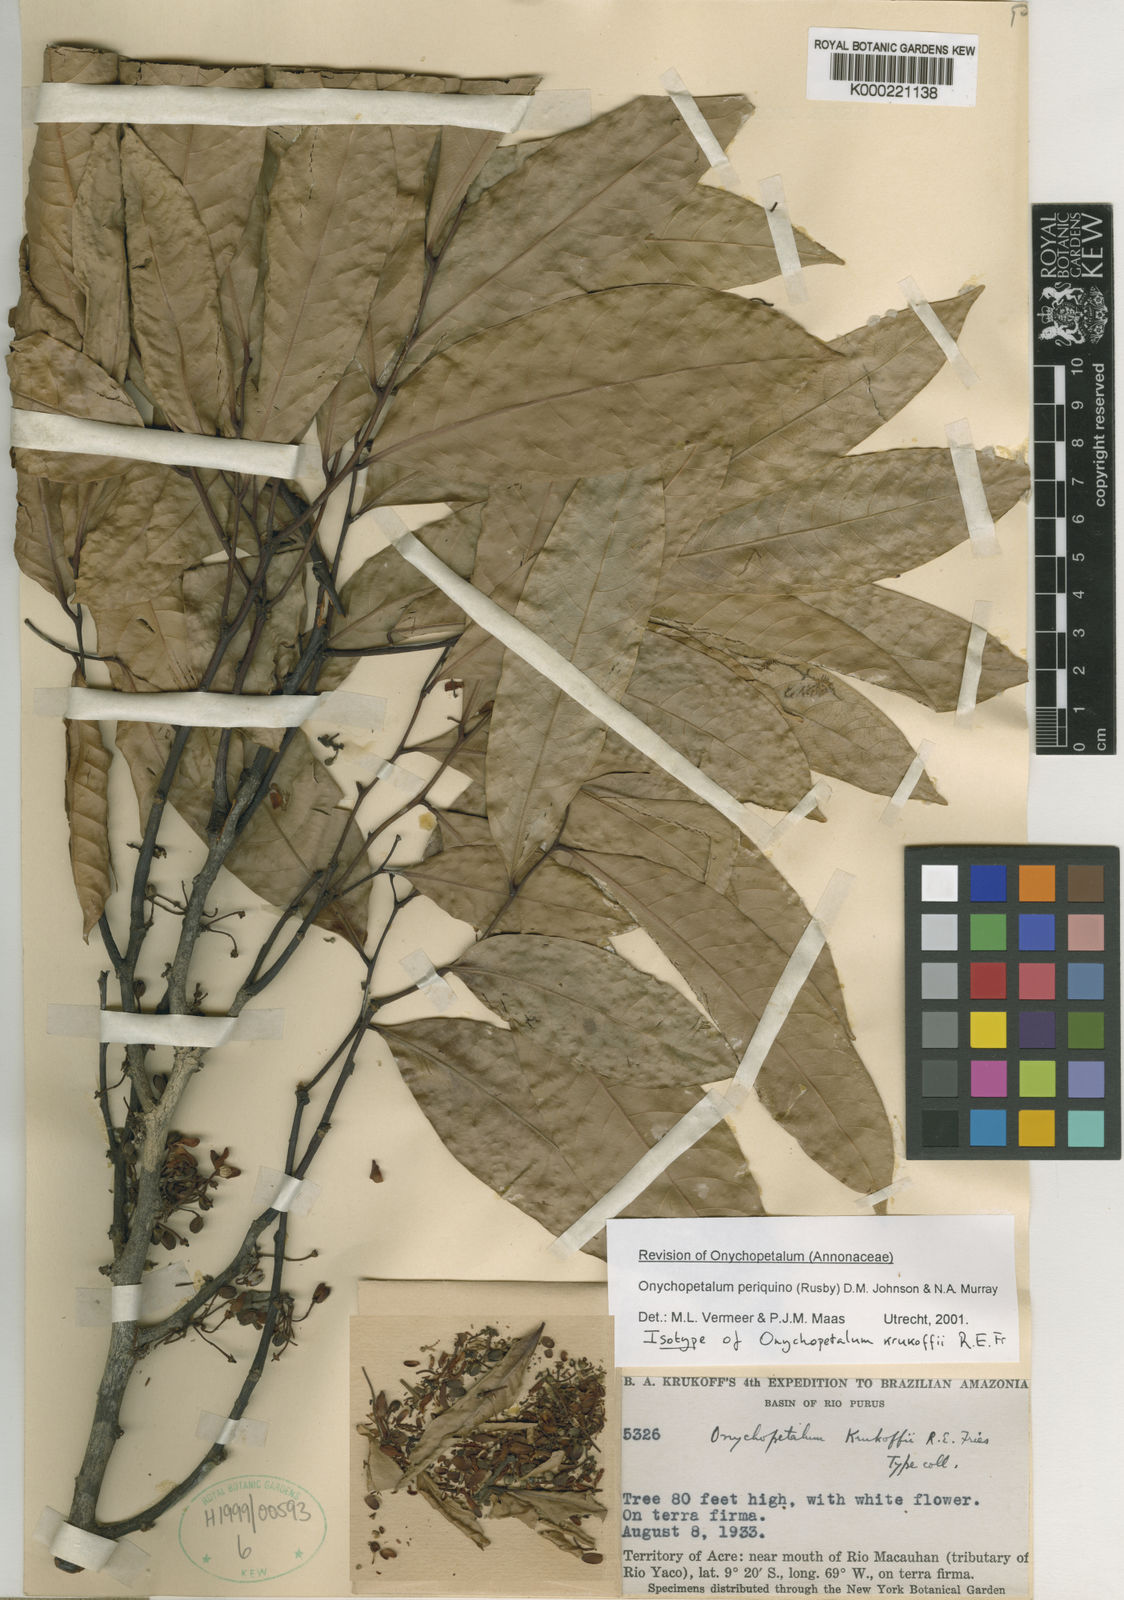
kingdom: Plantae
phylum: Tracheophyta
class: Magnoliopsida
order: Magnoliales
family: Annonaceae
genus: Onychopetalum
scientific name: Onychopetalum periquino
